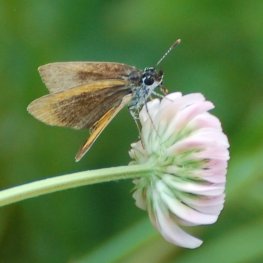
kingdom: Animalia
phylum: Arthropoda
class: Insecta
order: Lepidoptera
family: Hesperiidae
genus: Ancyloxypha
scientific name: Ancyloxypha numitor
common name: Least Skipper
